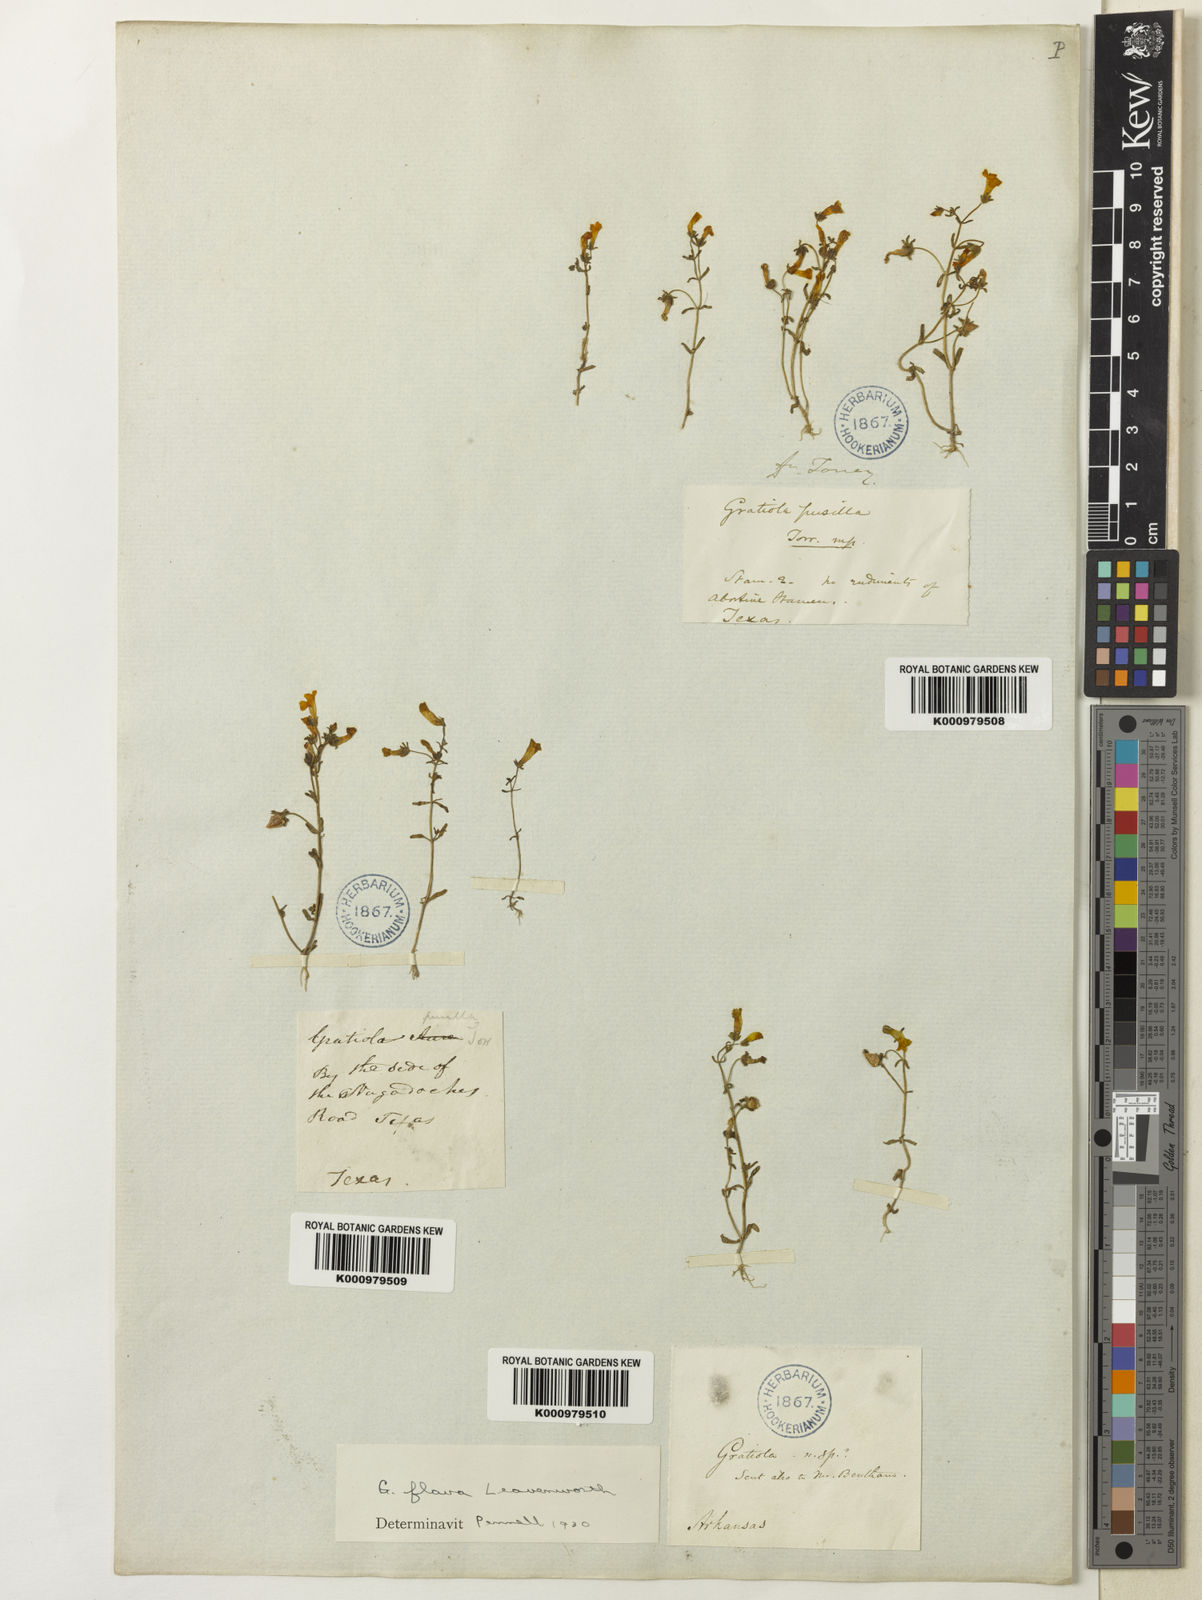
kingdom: Plantae
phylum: Tracheophyta
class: Magnoliopsida
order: Lamiales
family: Plantaginaceae
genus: Gratiola
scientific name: Gratiola torreyi
